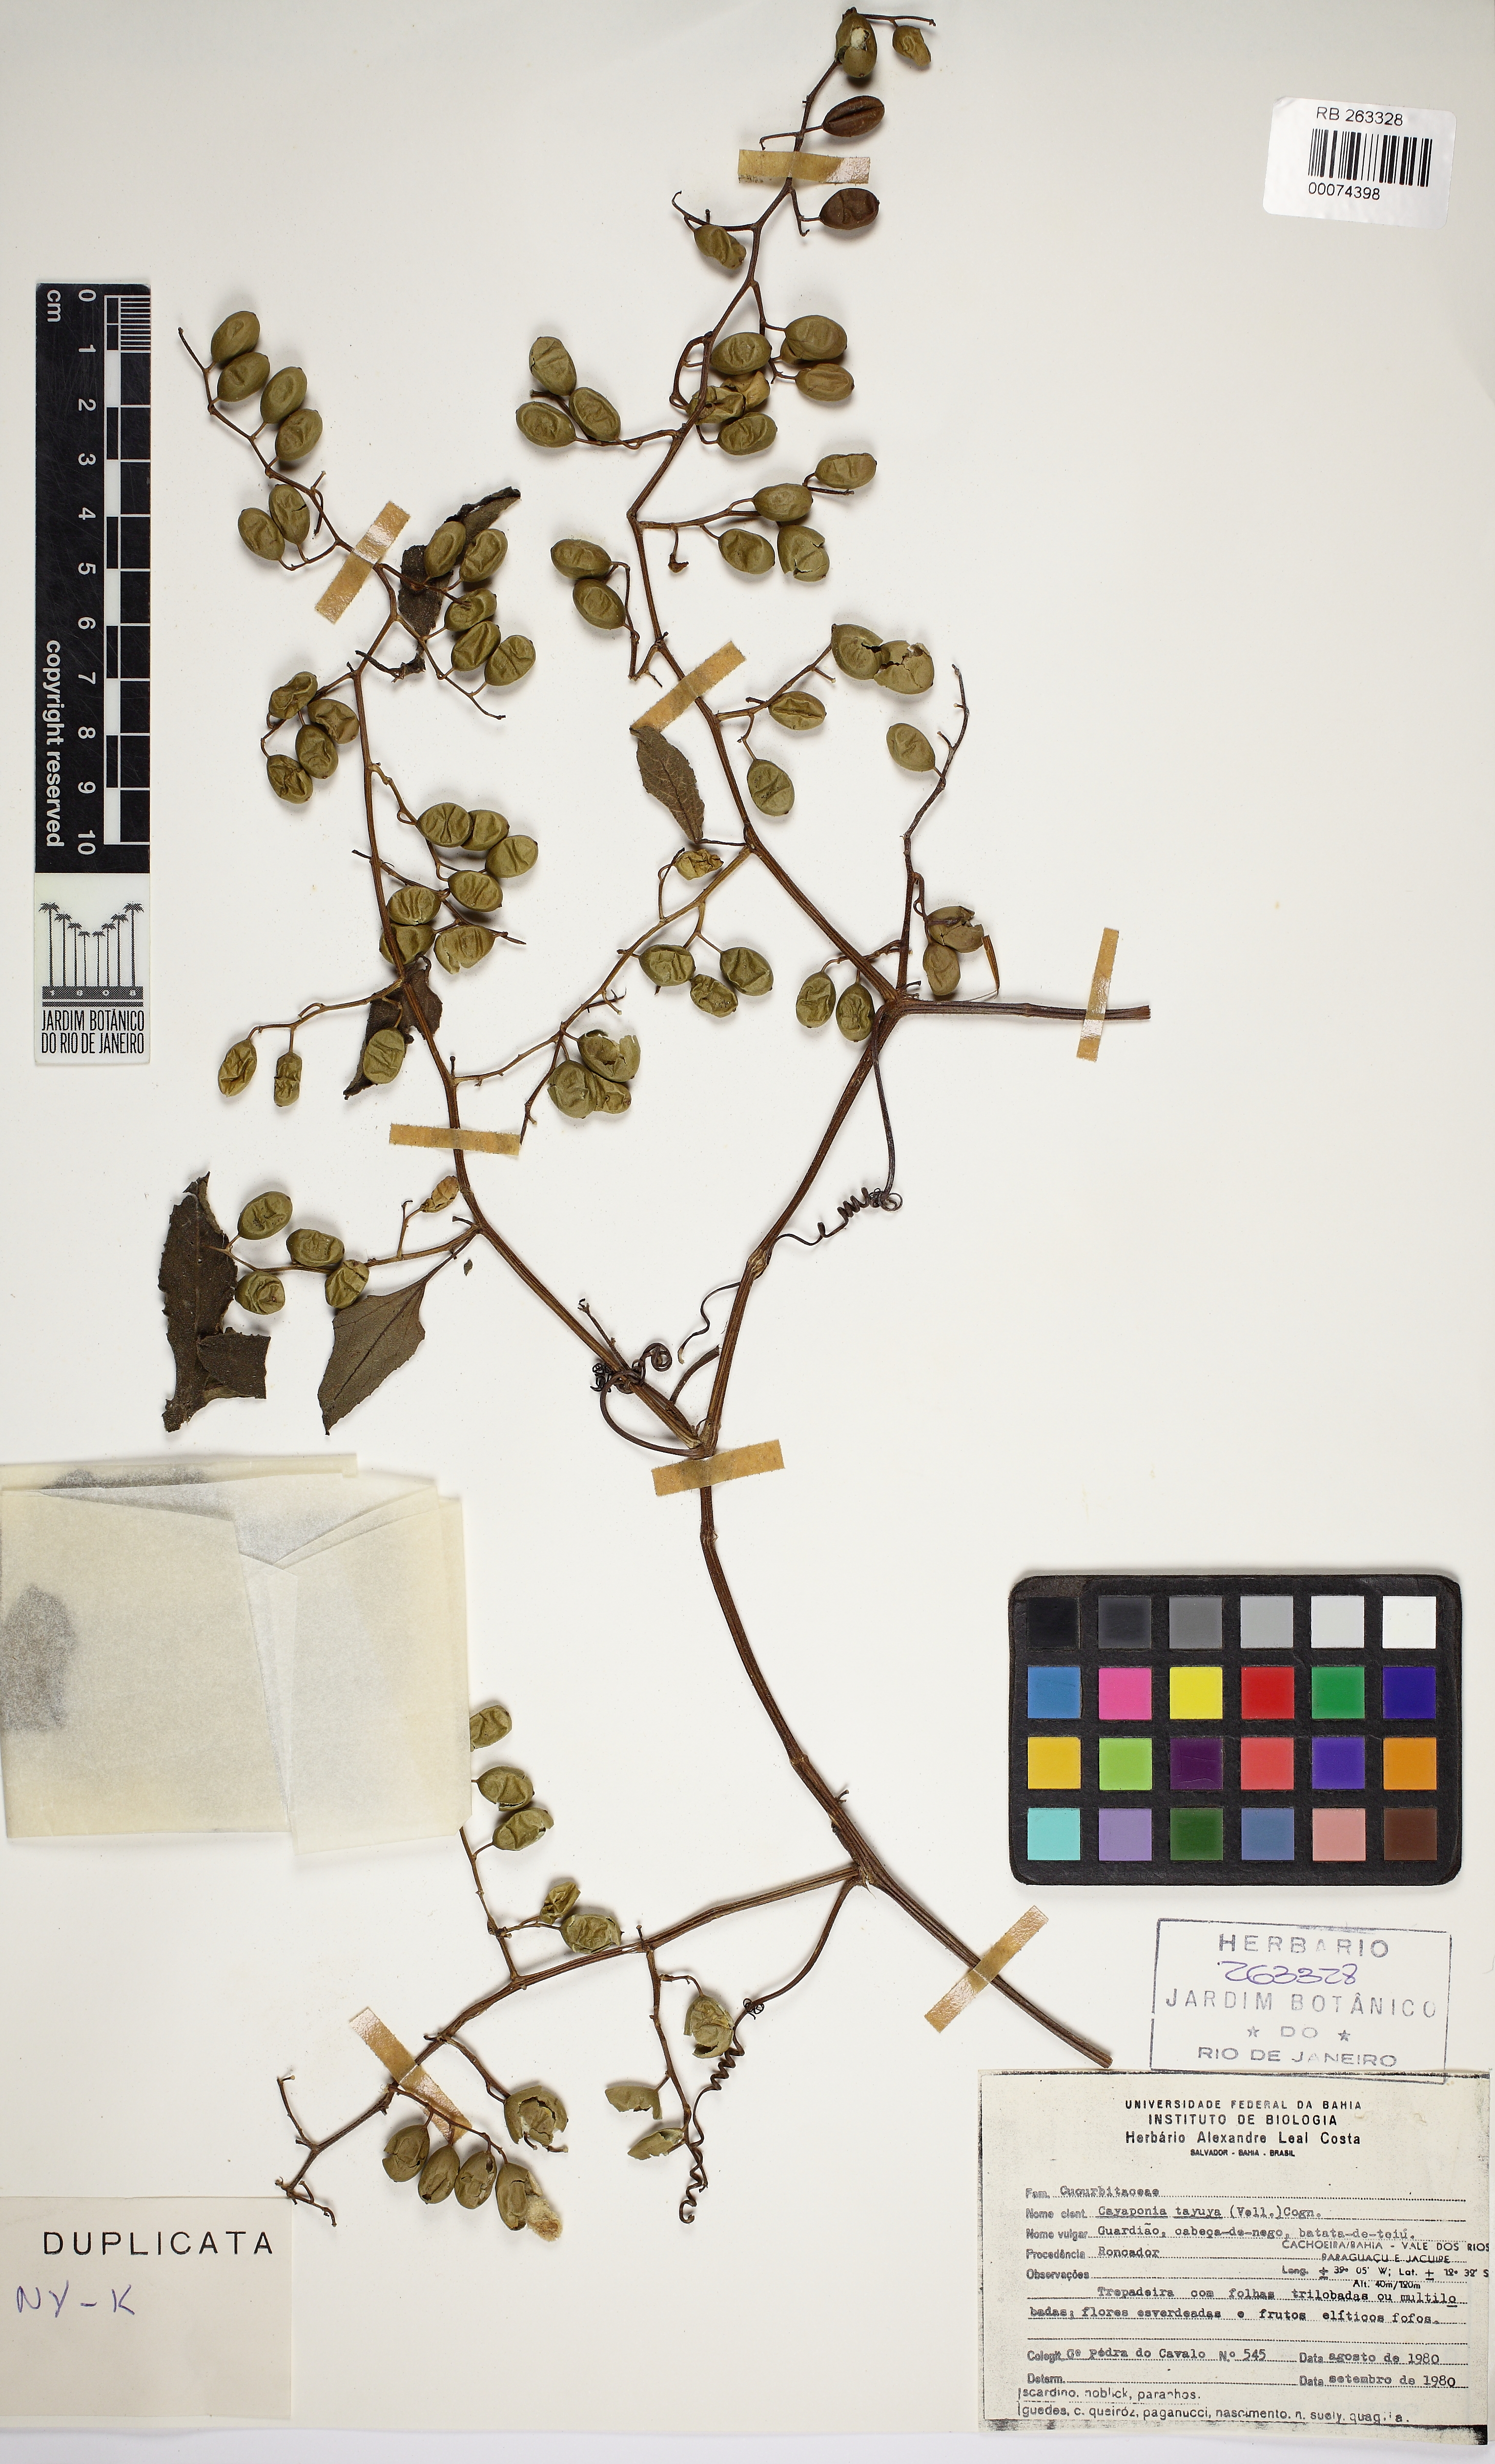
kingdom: Plantae
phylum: Tracheophyta
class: Magnoliopsida
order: Cucurbitales
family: Cucurbitaceae
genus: Cayaponia
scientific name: Cayaponia tayuya
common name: Tayuya
